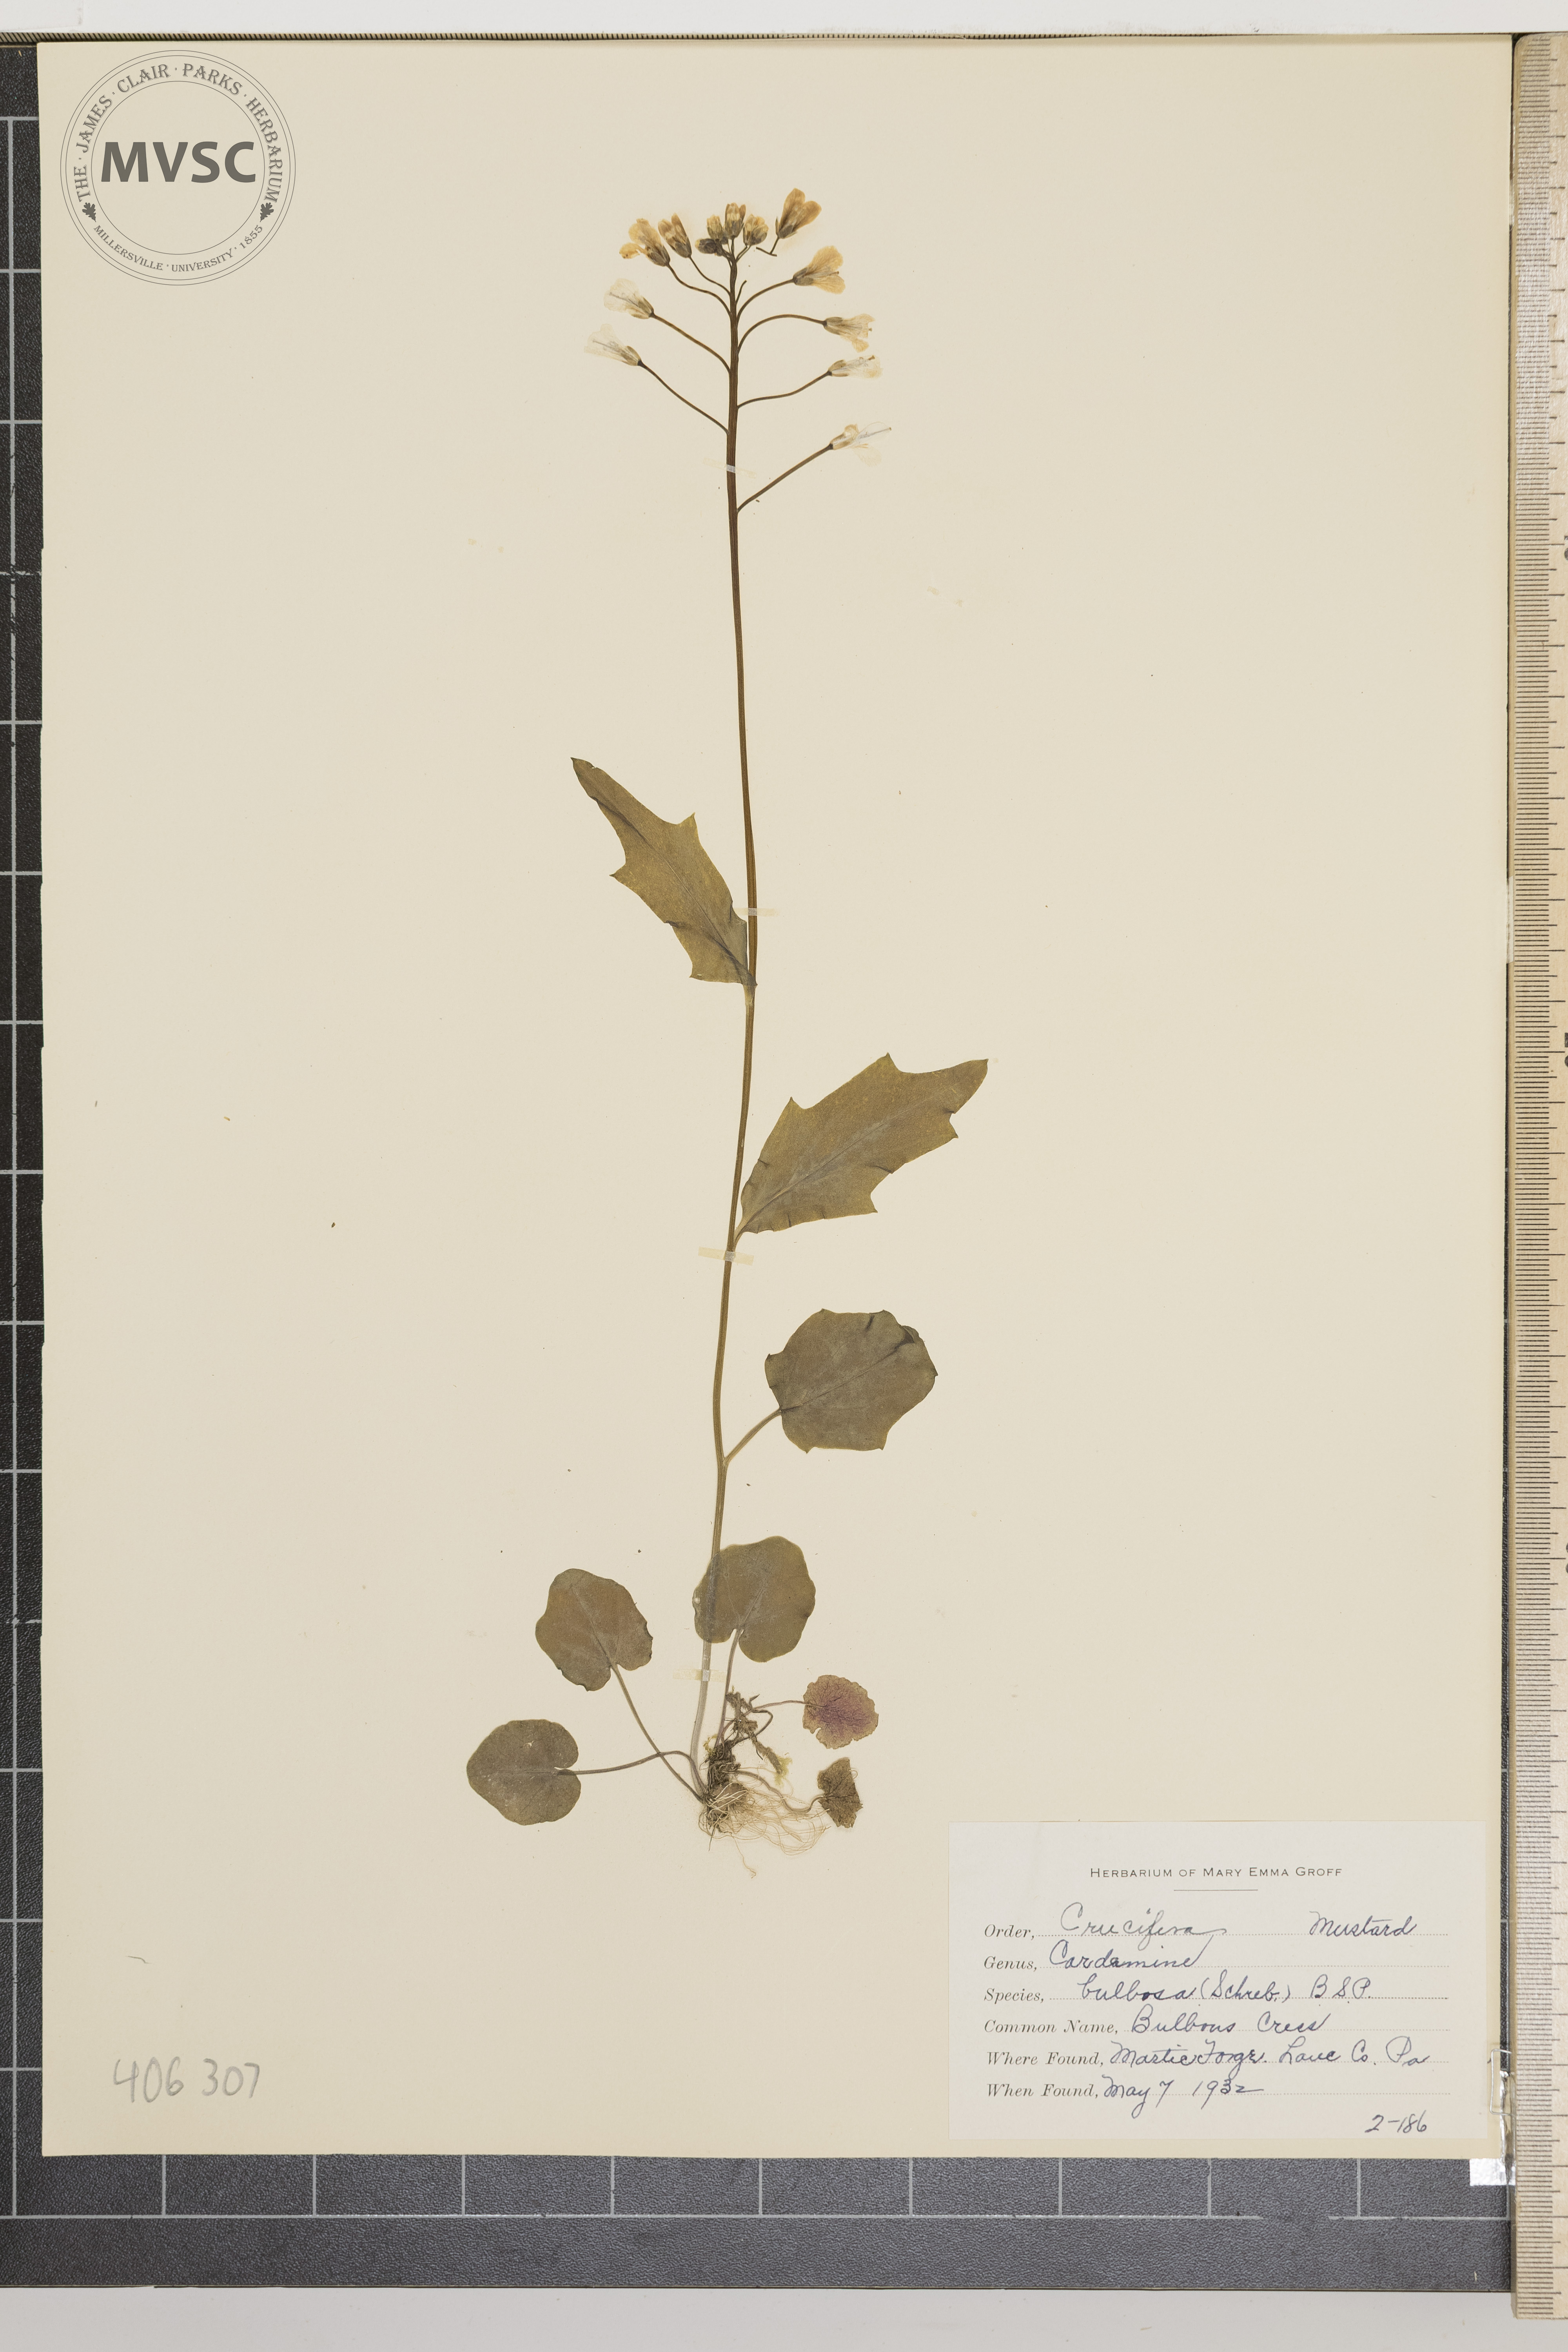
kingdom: Plantae
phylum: Tracheophyta
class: Magnoliopsida
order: Brassicales
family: Brassicaceae
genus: Cardamine
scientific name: Cardamine bulbosa
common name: Bulbous Cress
